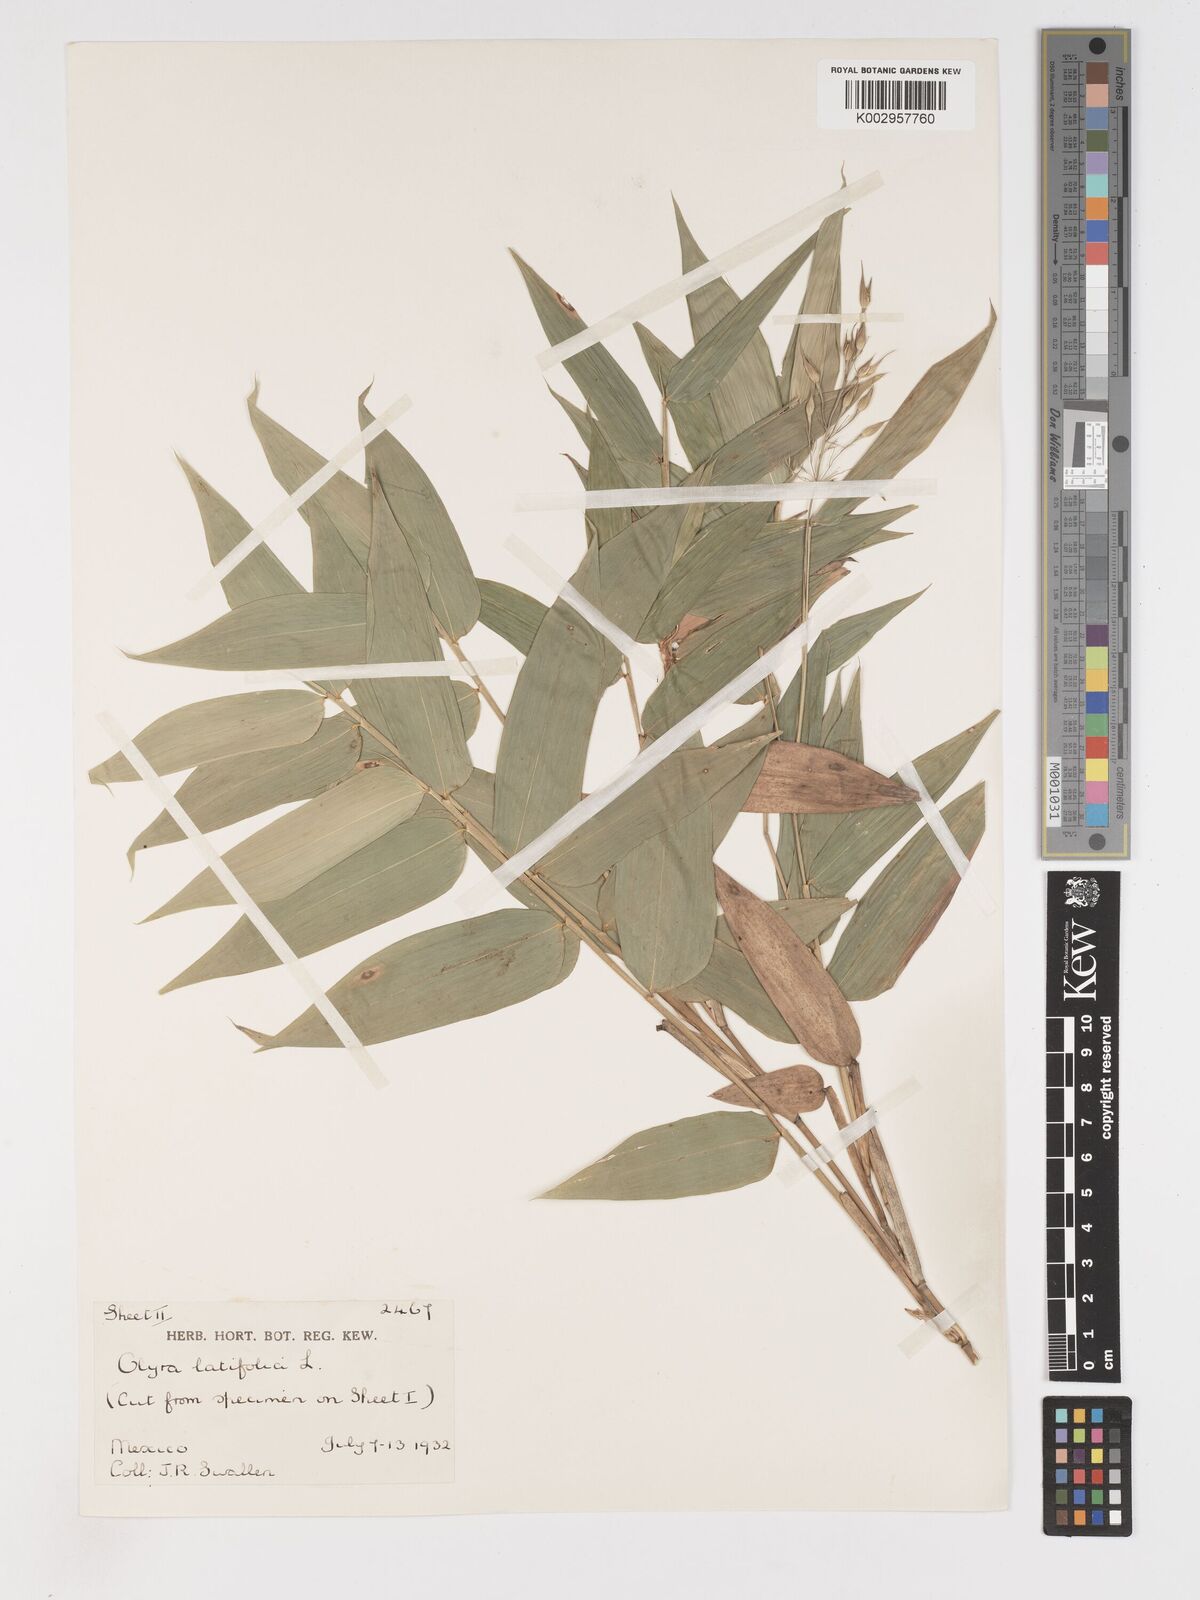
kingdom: Plantae
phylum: Tracheophyta
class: Liliopsida
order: Poales
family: Poaceae
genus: Olyra
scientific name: Olyra latifolia
